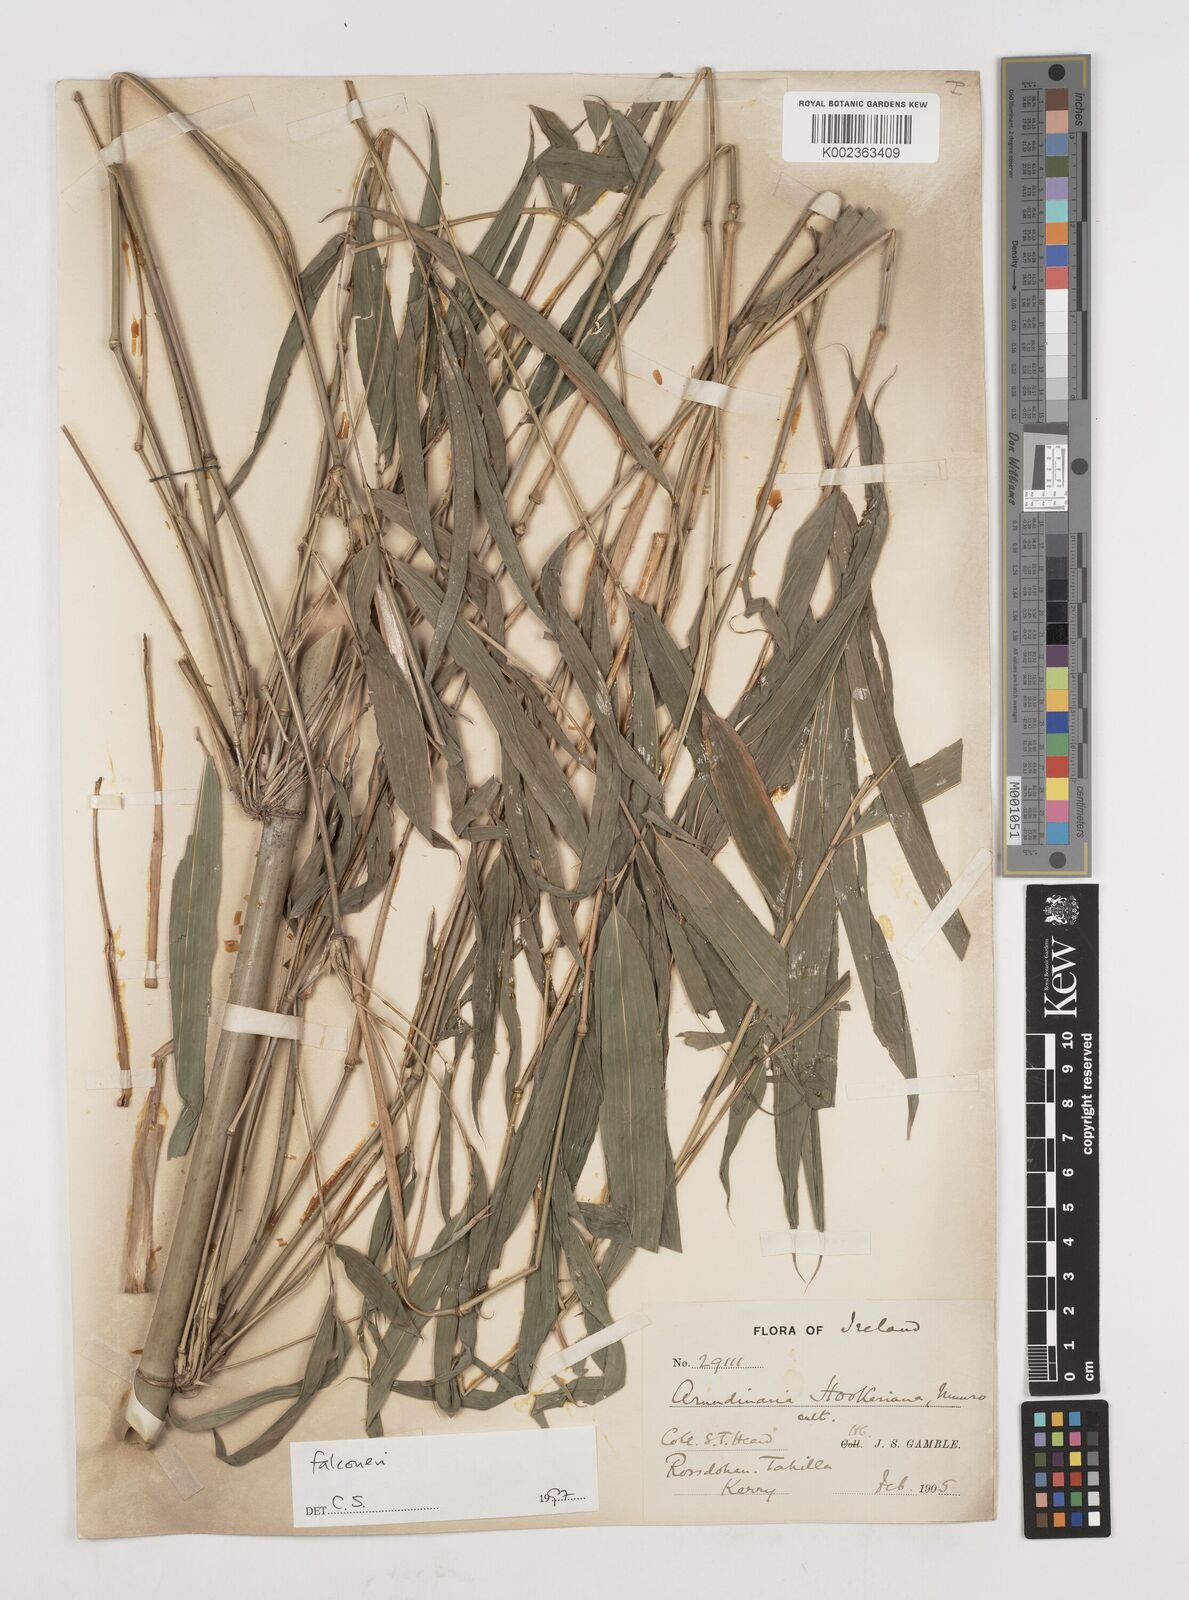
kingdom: Plantae
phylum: Tracheophyta
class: Liliopsida
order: Poales
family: Poaceae
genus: Himalayacalamus
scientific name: Himalayacalamus falconeri
